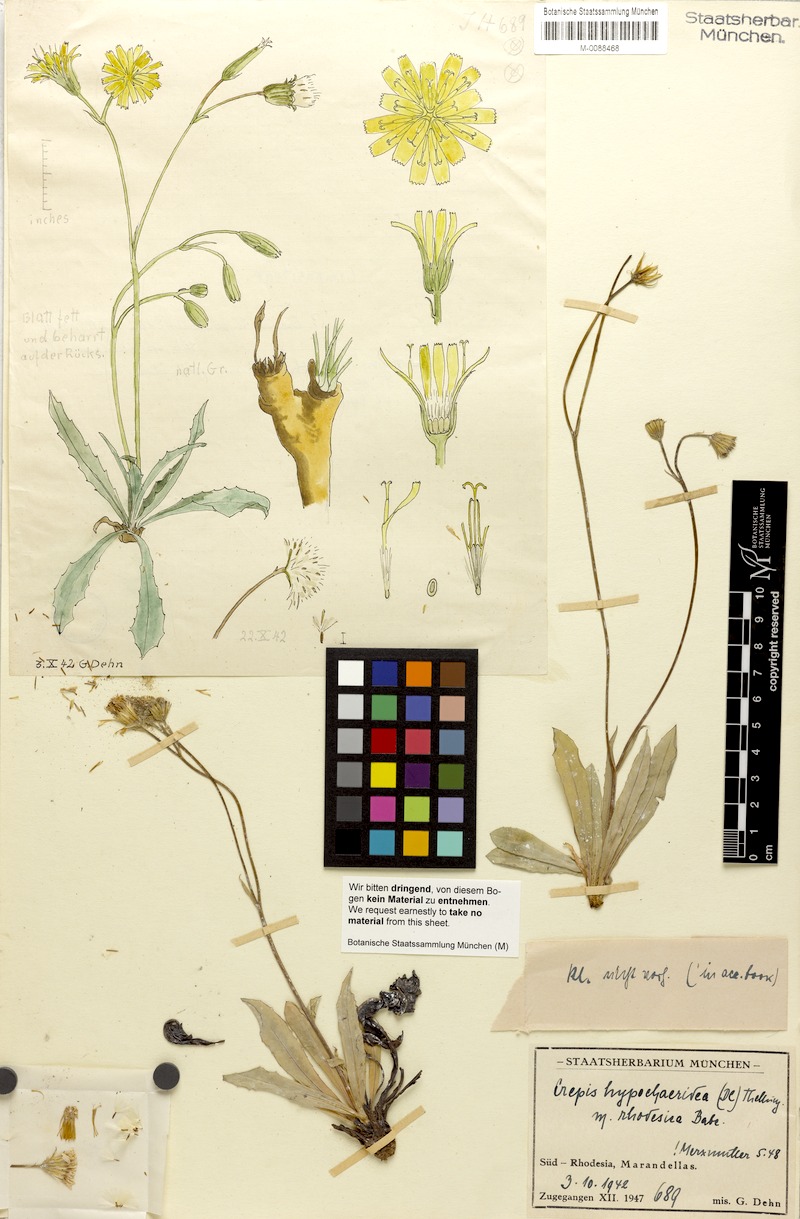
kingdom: Plantae
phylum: Tracheophyta
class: Magnoliopsida
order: Asterales
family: Asteraceae
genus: Crepis
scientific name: Crepis hypochoeridea
